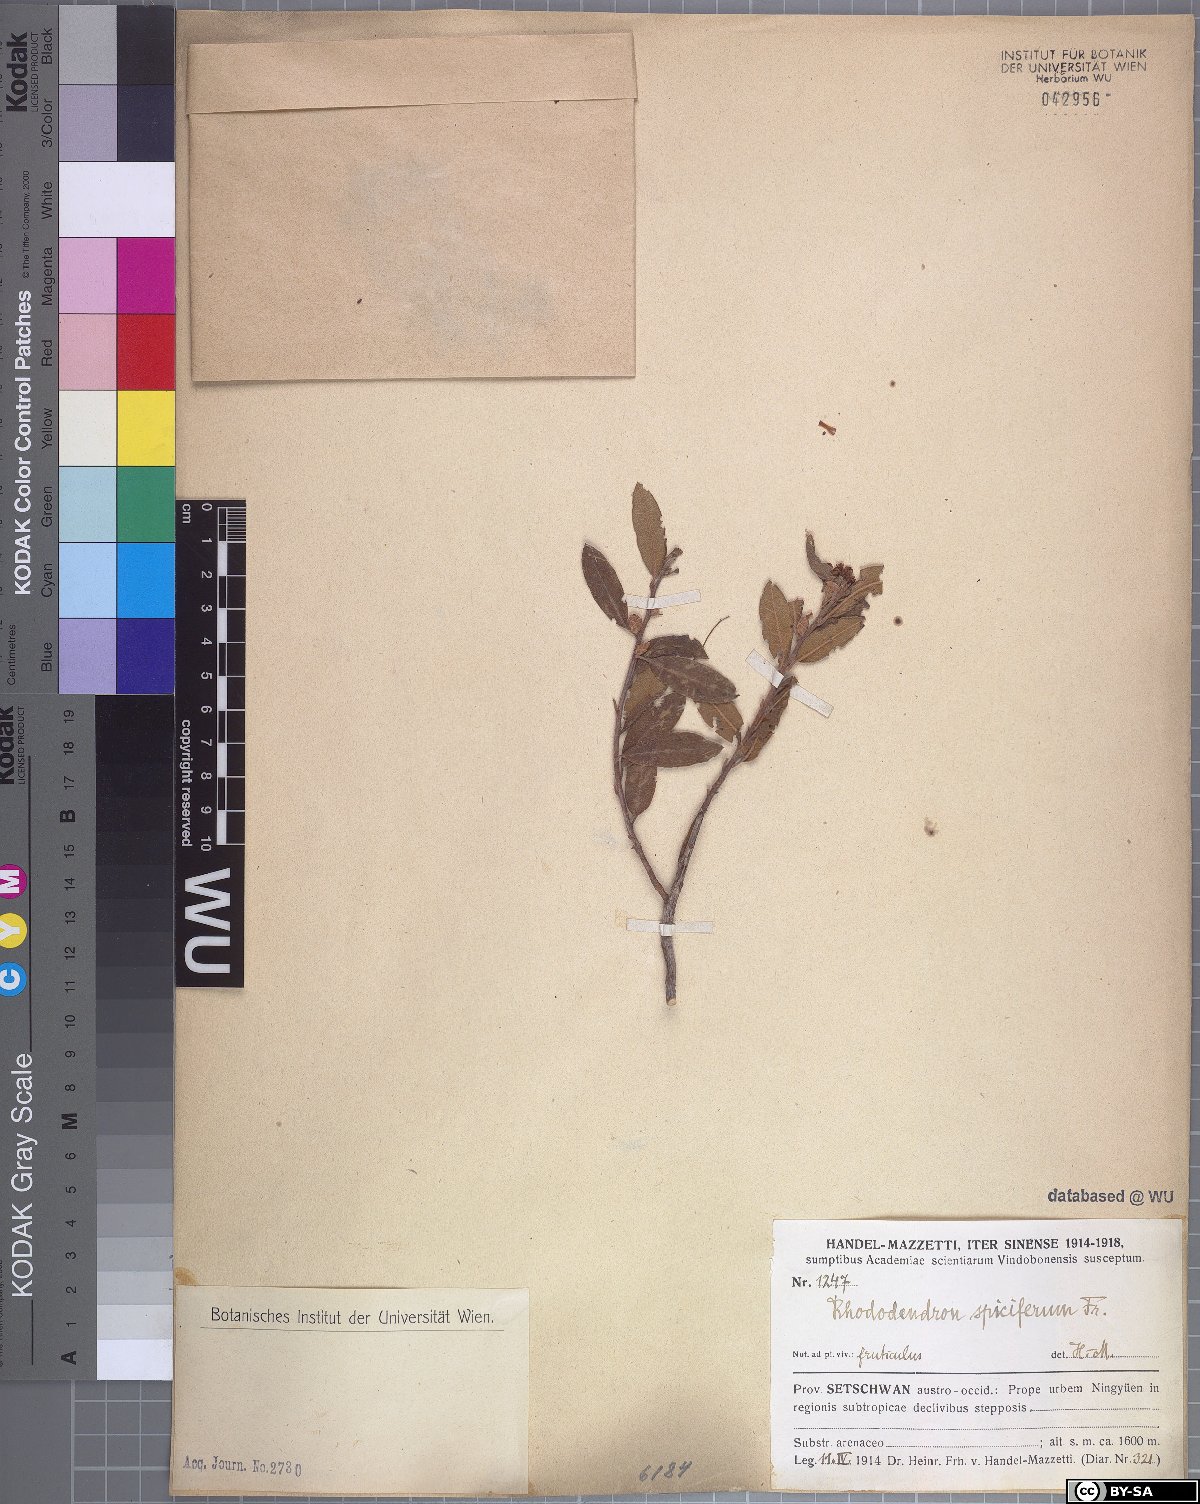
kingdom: Plantae
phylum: Tracheophyta
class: Magnoliopsida
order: Ericales
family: Ericaceae
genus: Rhododendron
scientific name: Rhododendron spiciferum
